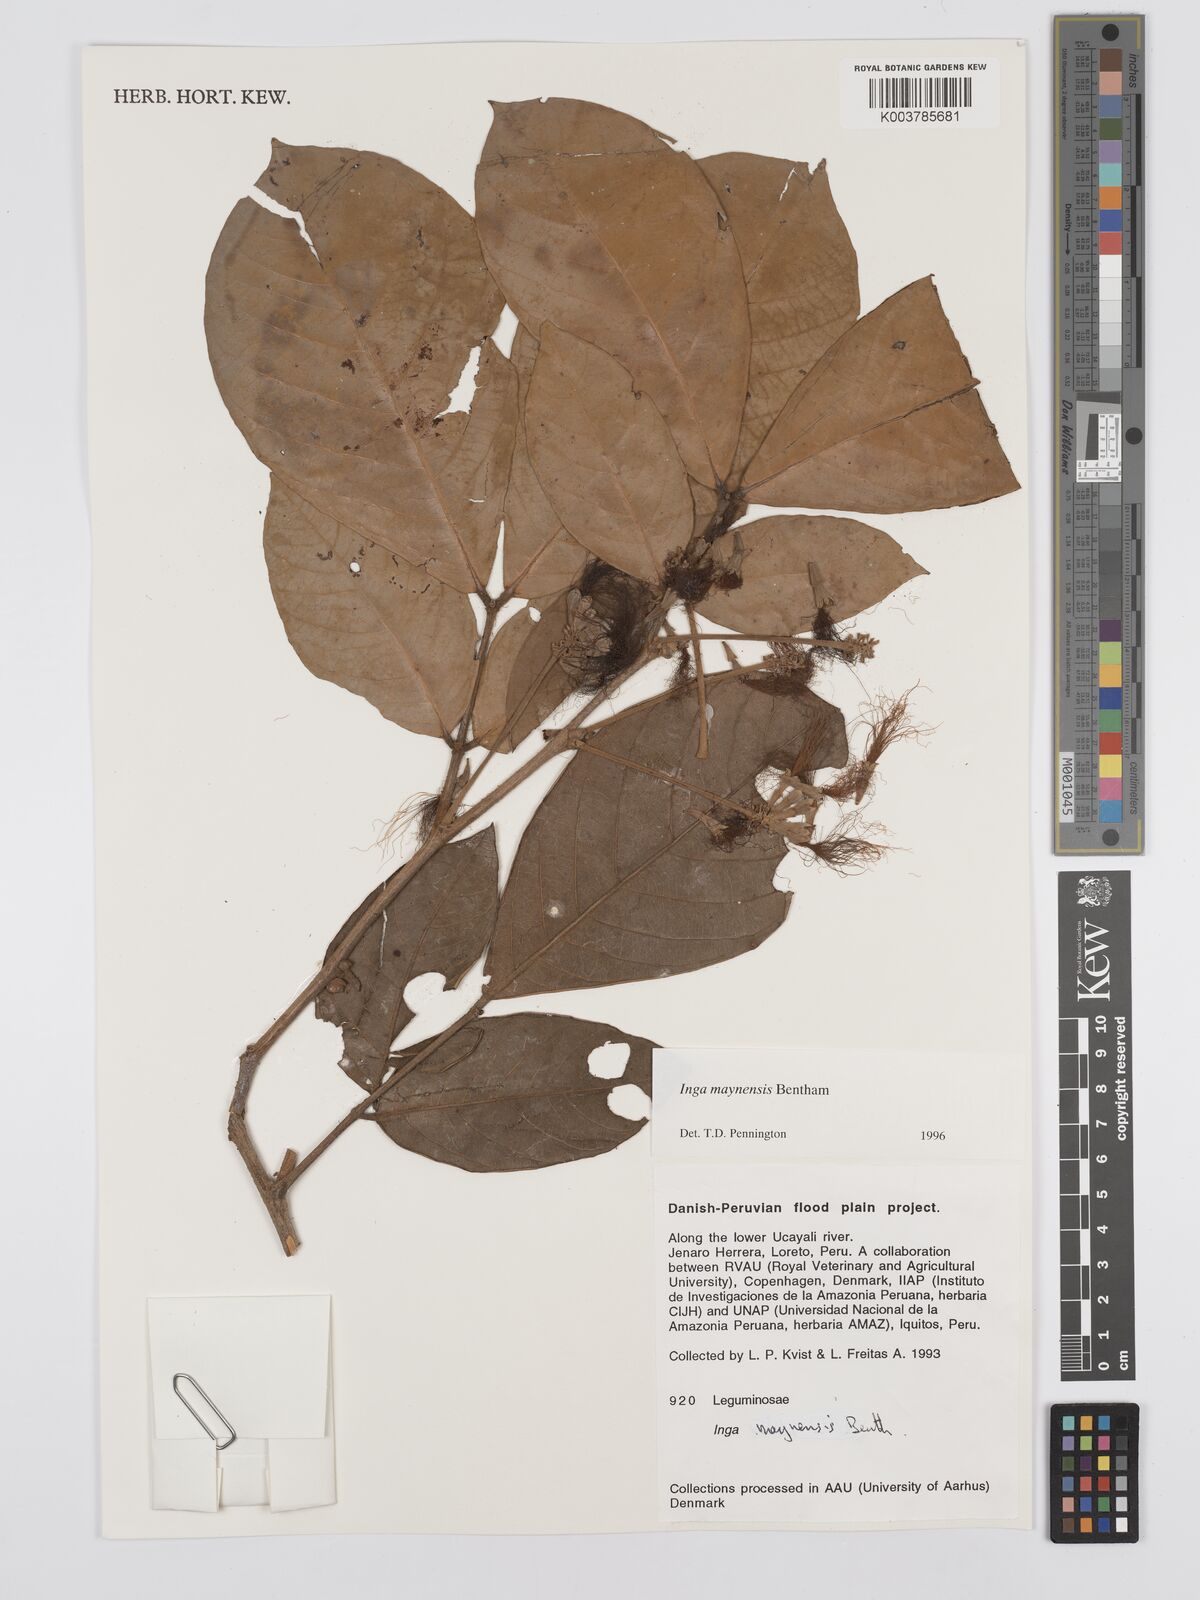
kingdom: Plantae
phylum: Tracheophyta
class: Magnoliopsida
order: Fabales
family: Fabaceae
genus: Inga
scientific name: Inga maynensis
